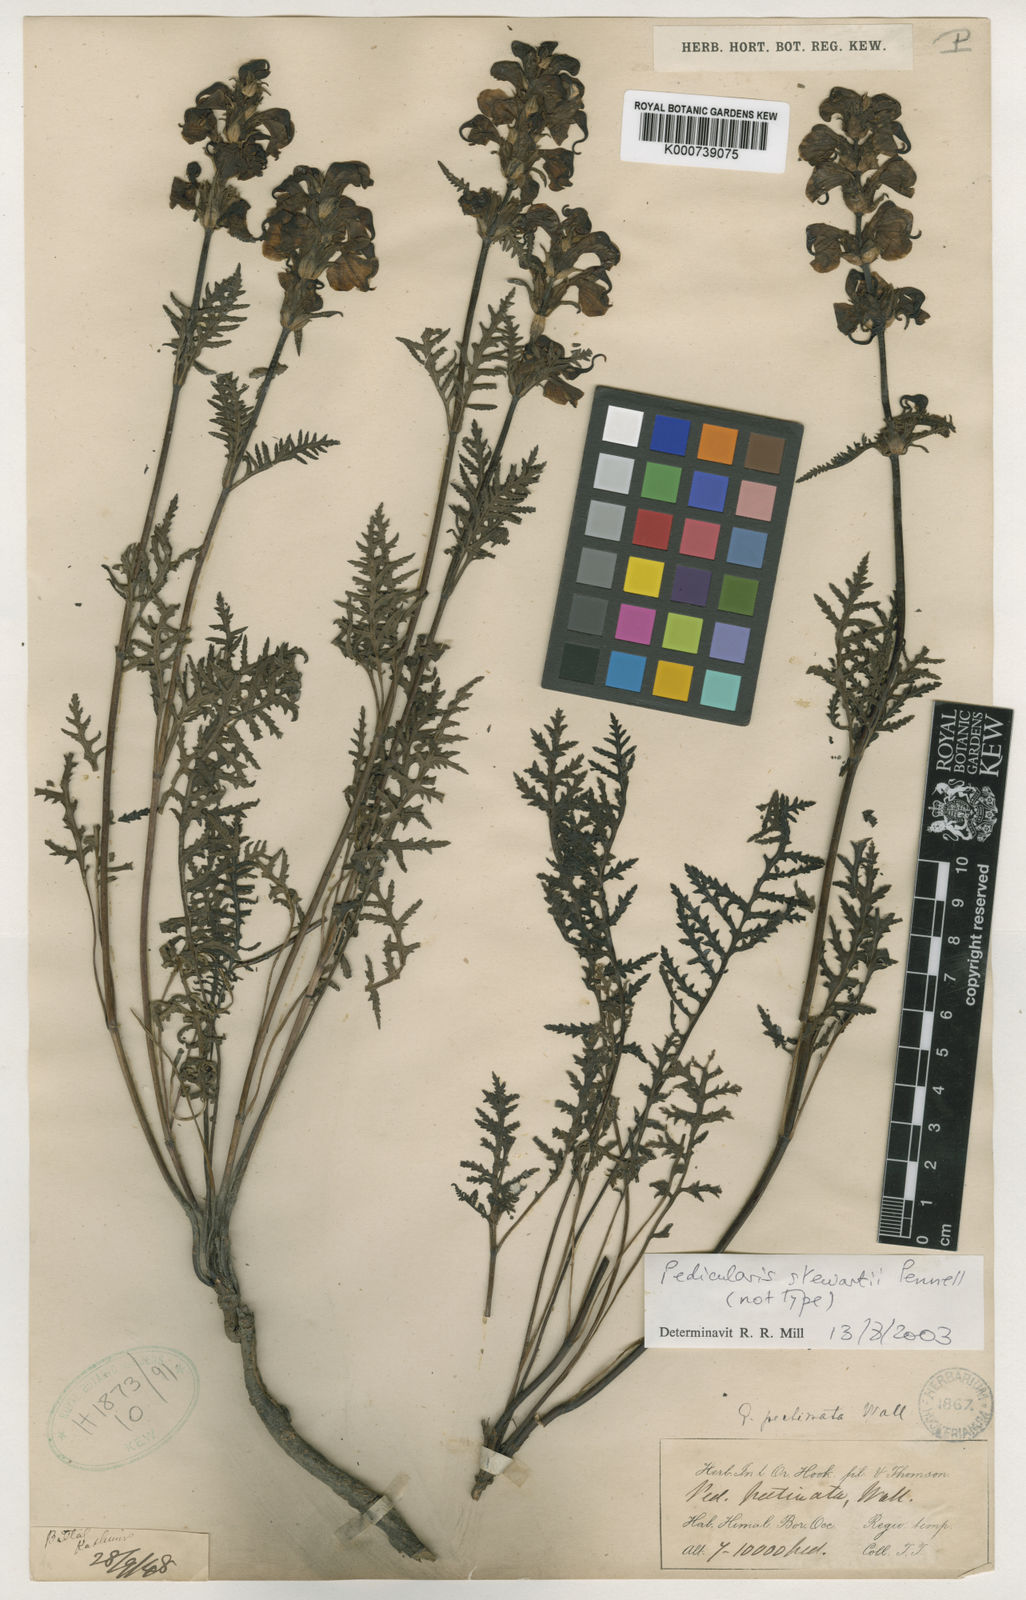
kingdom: Plantae
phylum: Tracheophyta
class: Magnoliopsida
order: Lamiales
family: Orobanchaceae
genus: Pedicularis
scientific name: Pedicularis stewartii
